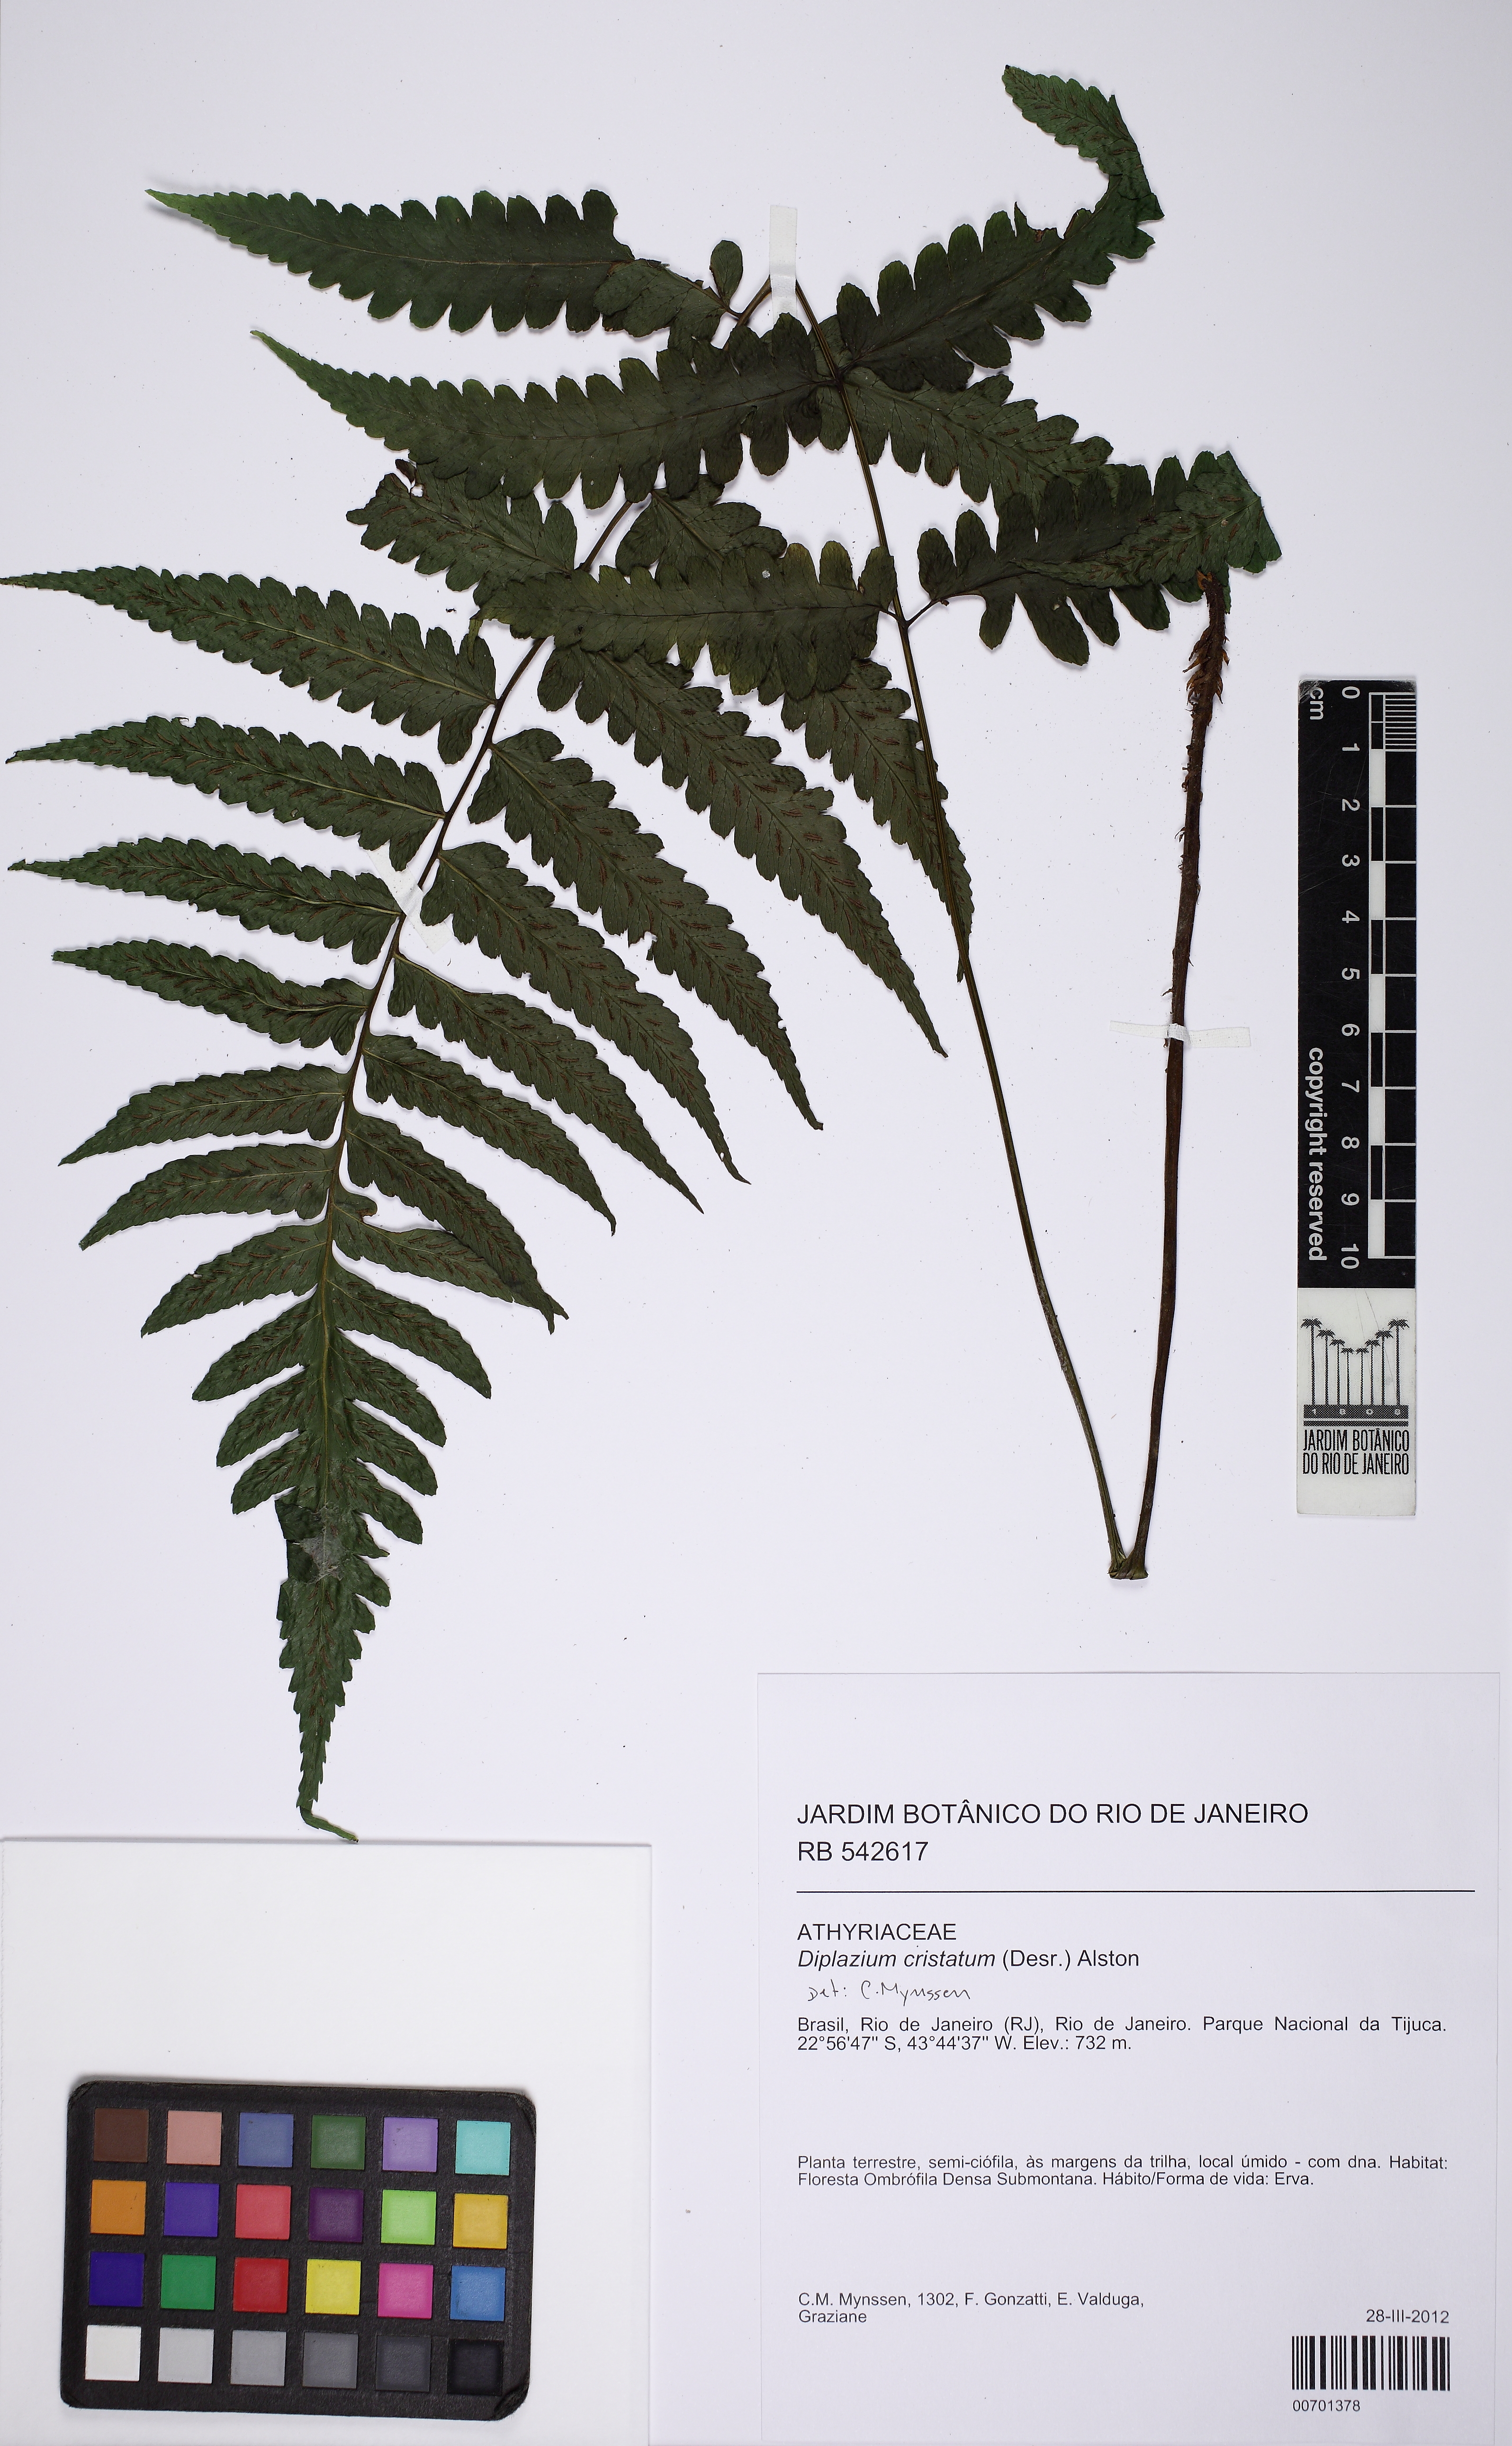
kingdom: Plantae
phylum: Tracheophyta
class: Polypodiopsida
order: Polypodiales
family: Athyriaceae
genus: Diplazium
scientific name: Diplazium cristatum
